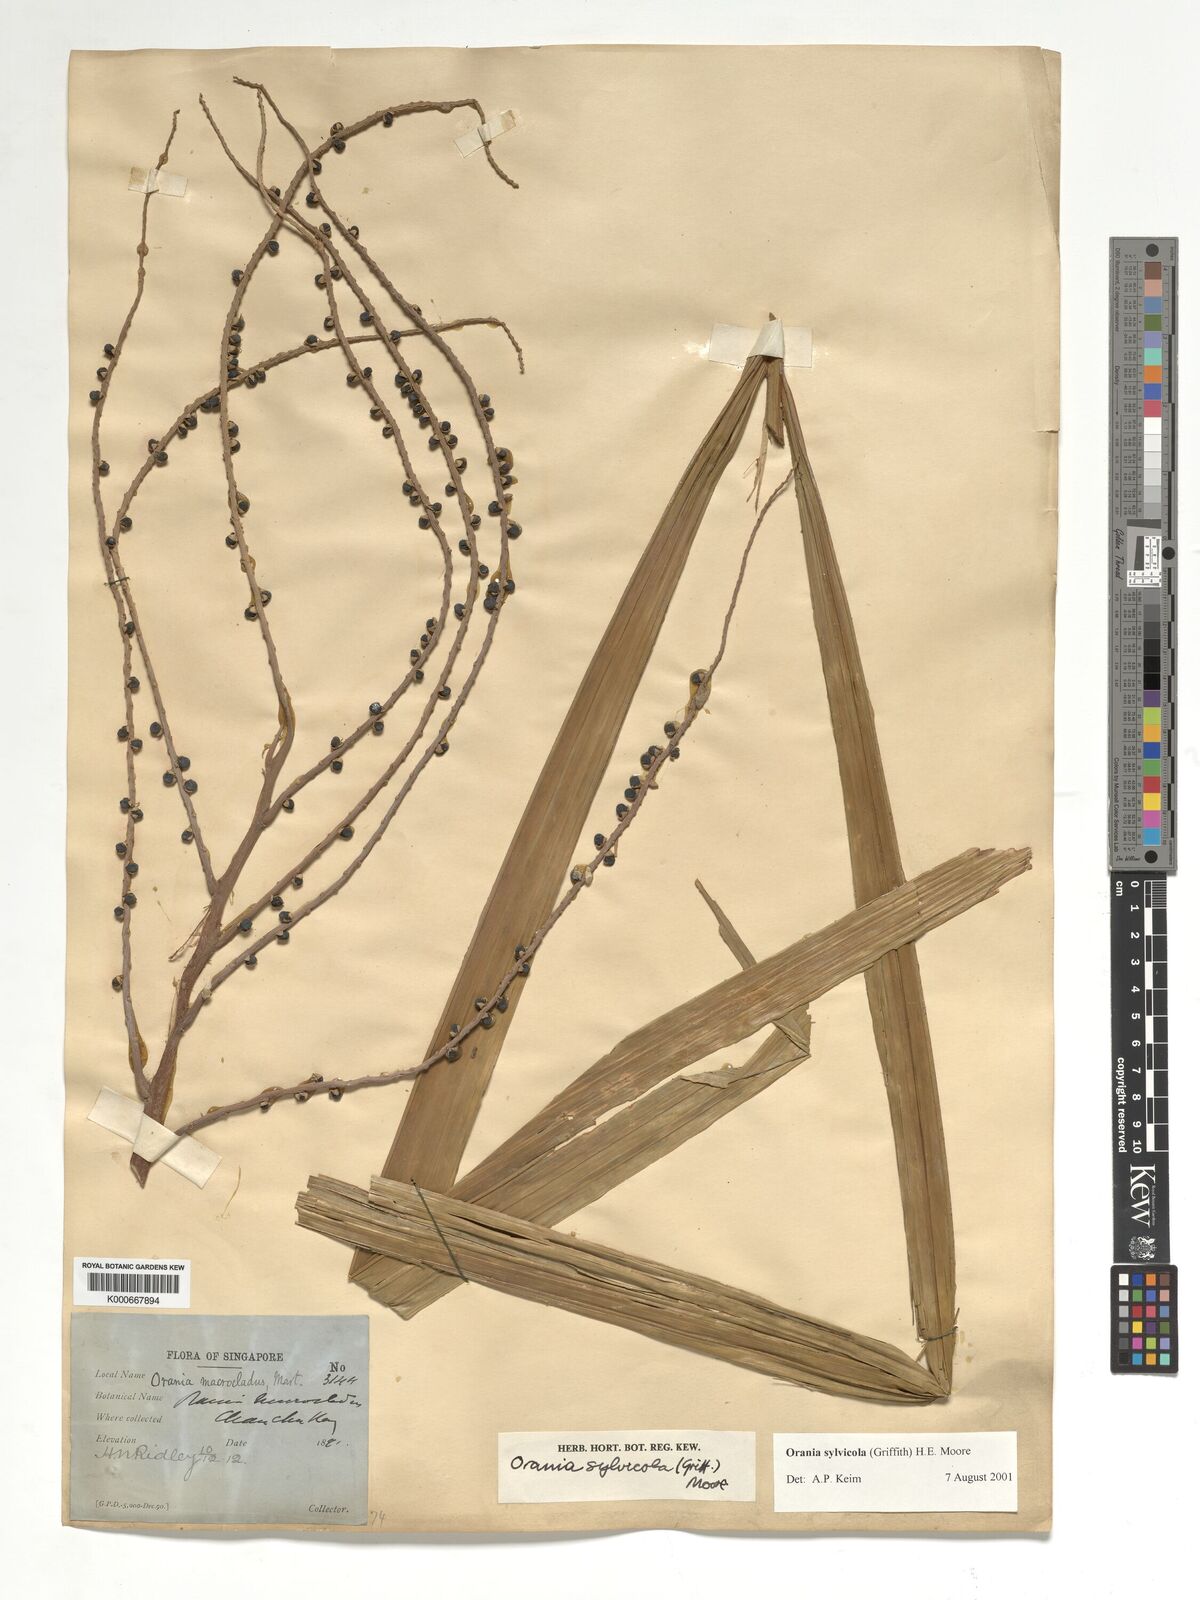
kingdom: Plantae
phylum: Tracheophyta
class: Liliopsida
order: Arecales
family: Arecaceae
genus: Orania
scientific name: Orania sylvicola
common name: Forest palm
